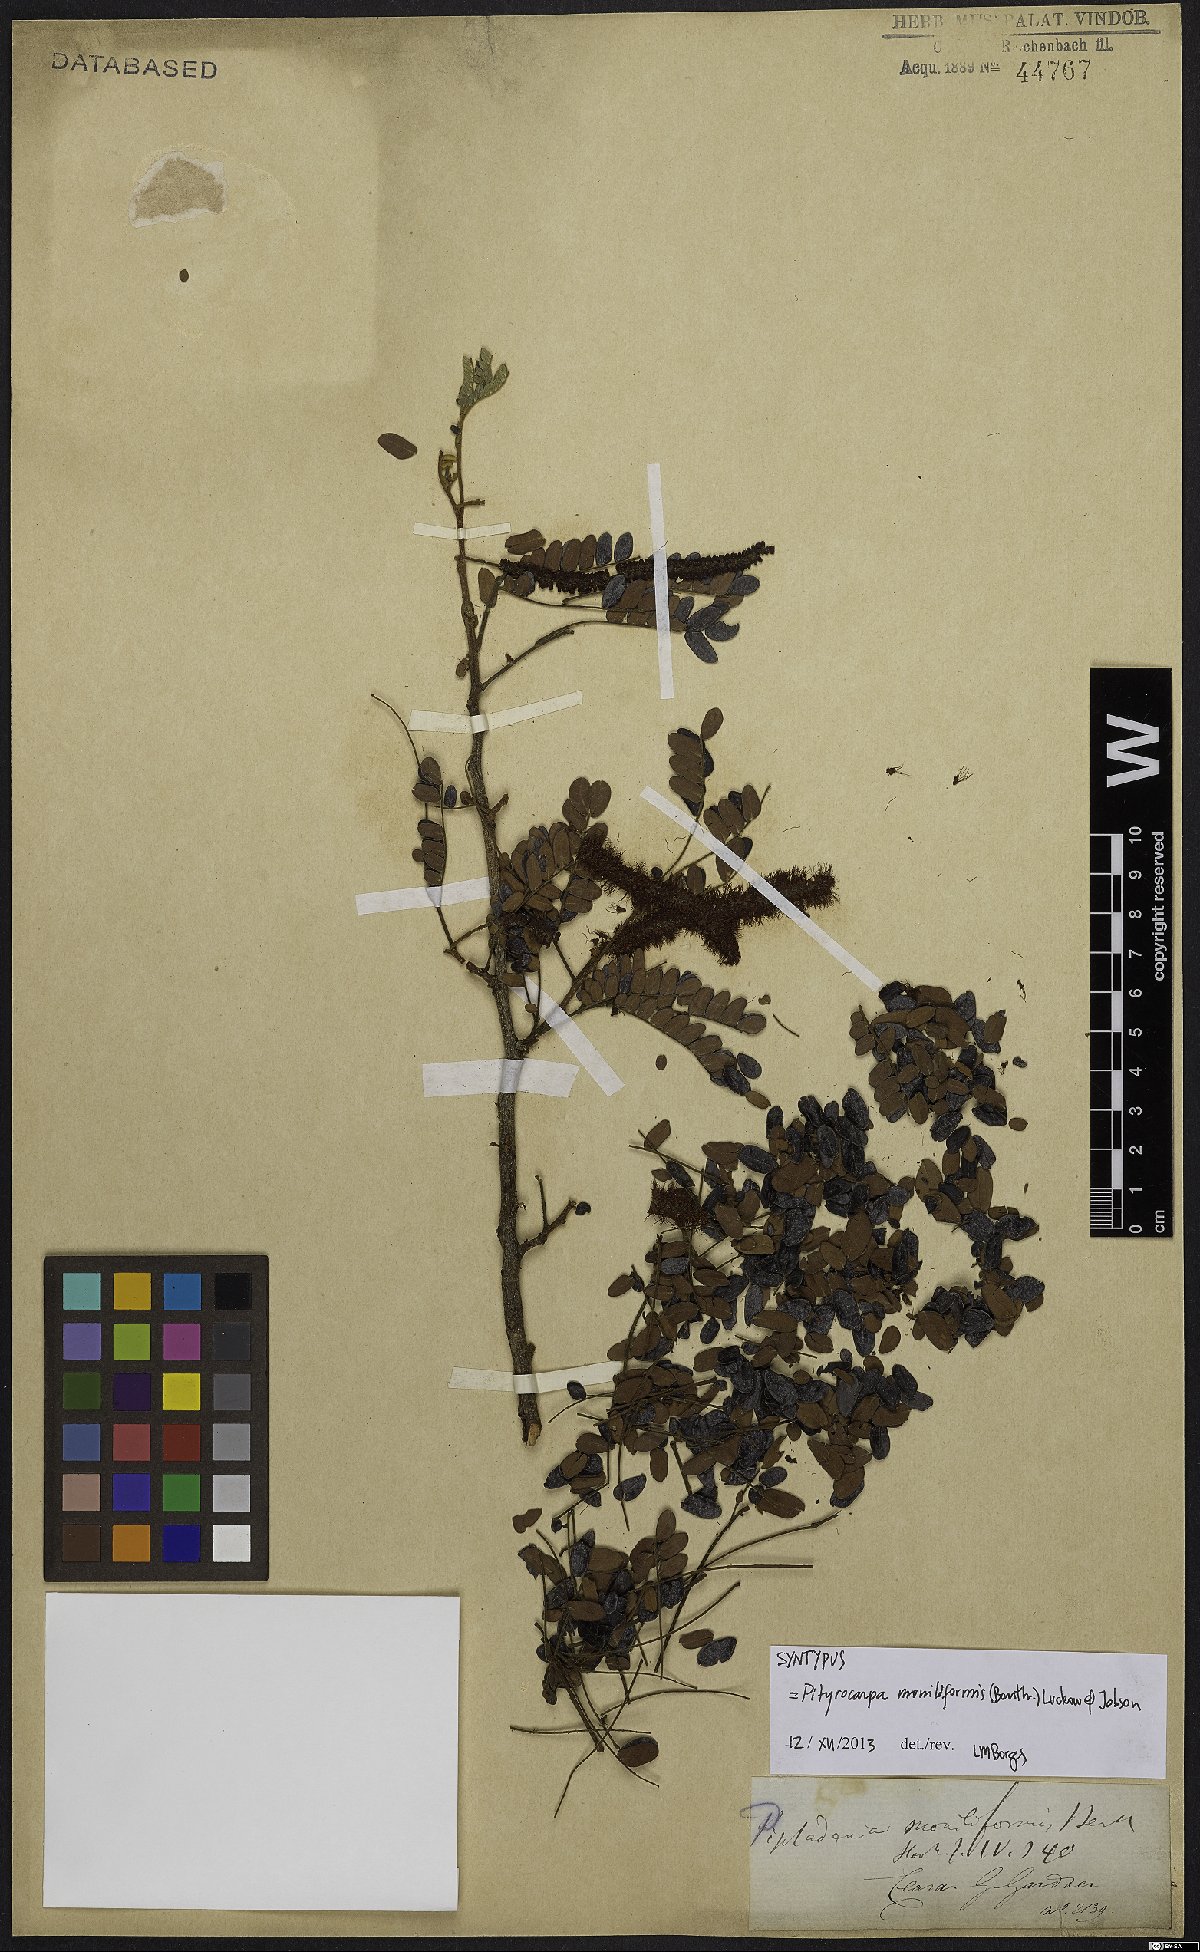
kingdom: Plantae
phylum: Tracheophyta
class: Magnoliopsida
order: Fabales
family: Fabaceae
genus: Pityrocarpa
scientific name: Pityrocarpa moniliformis
